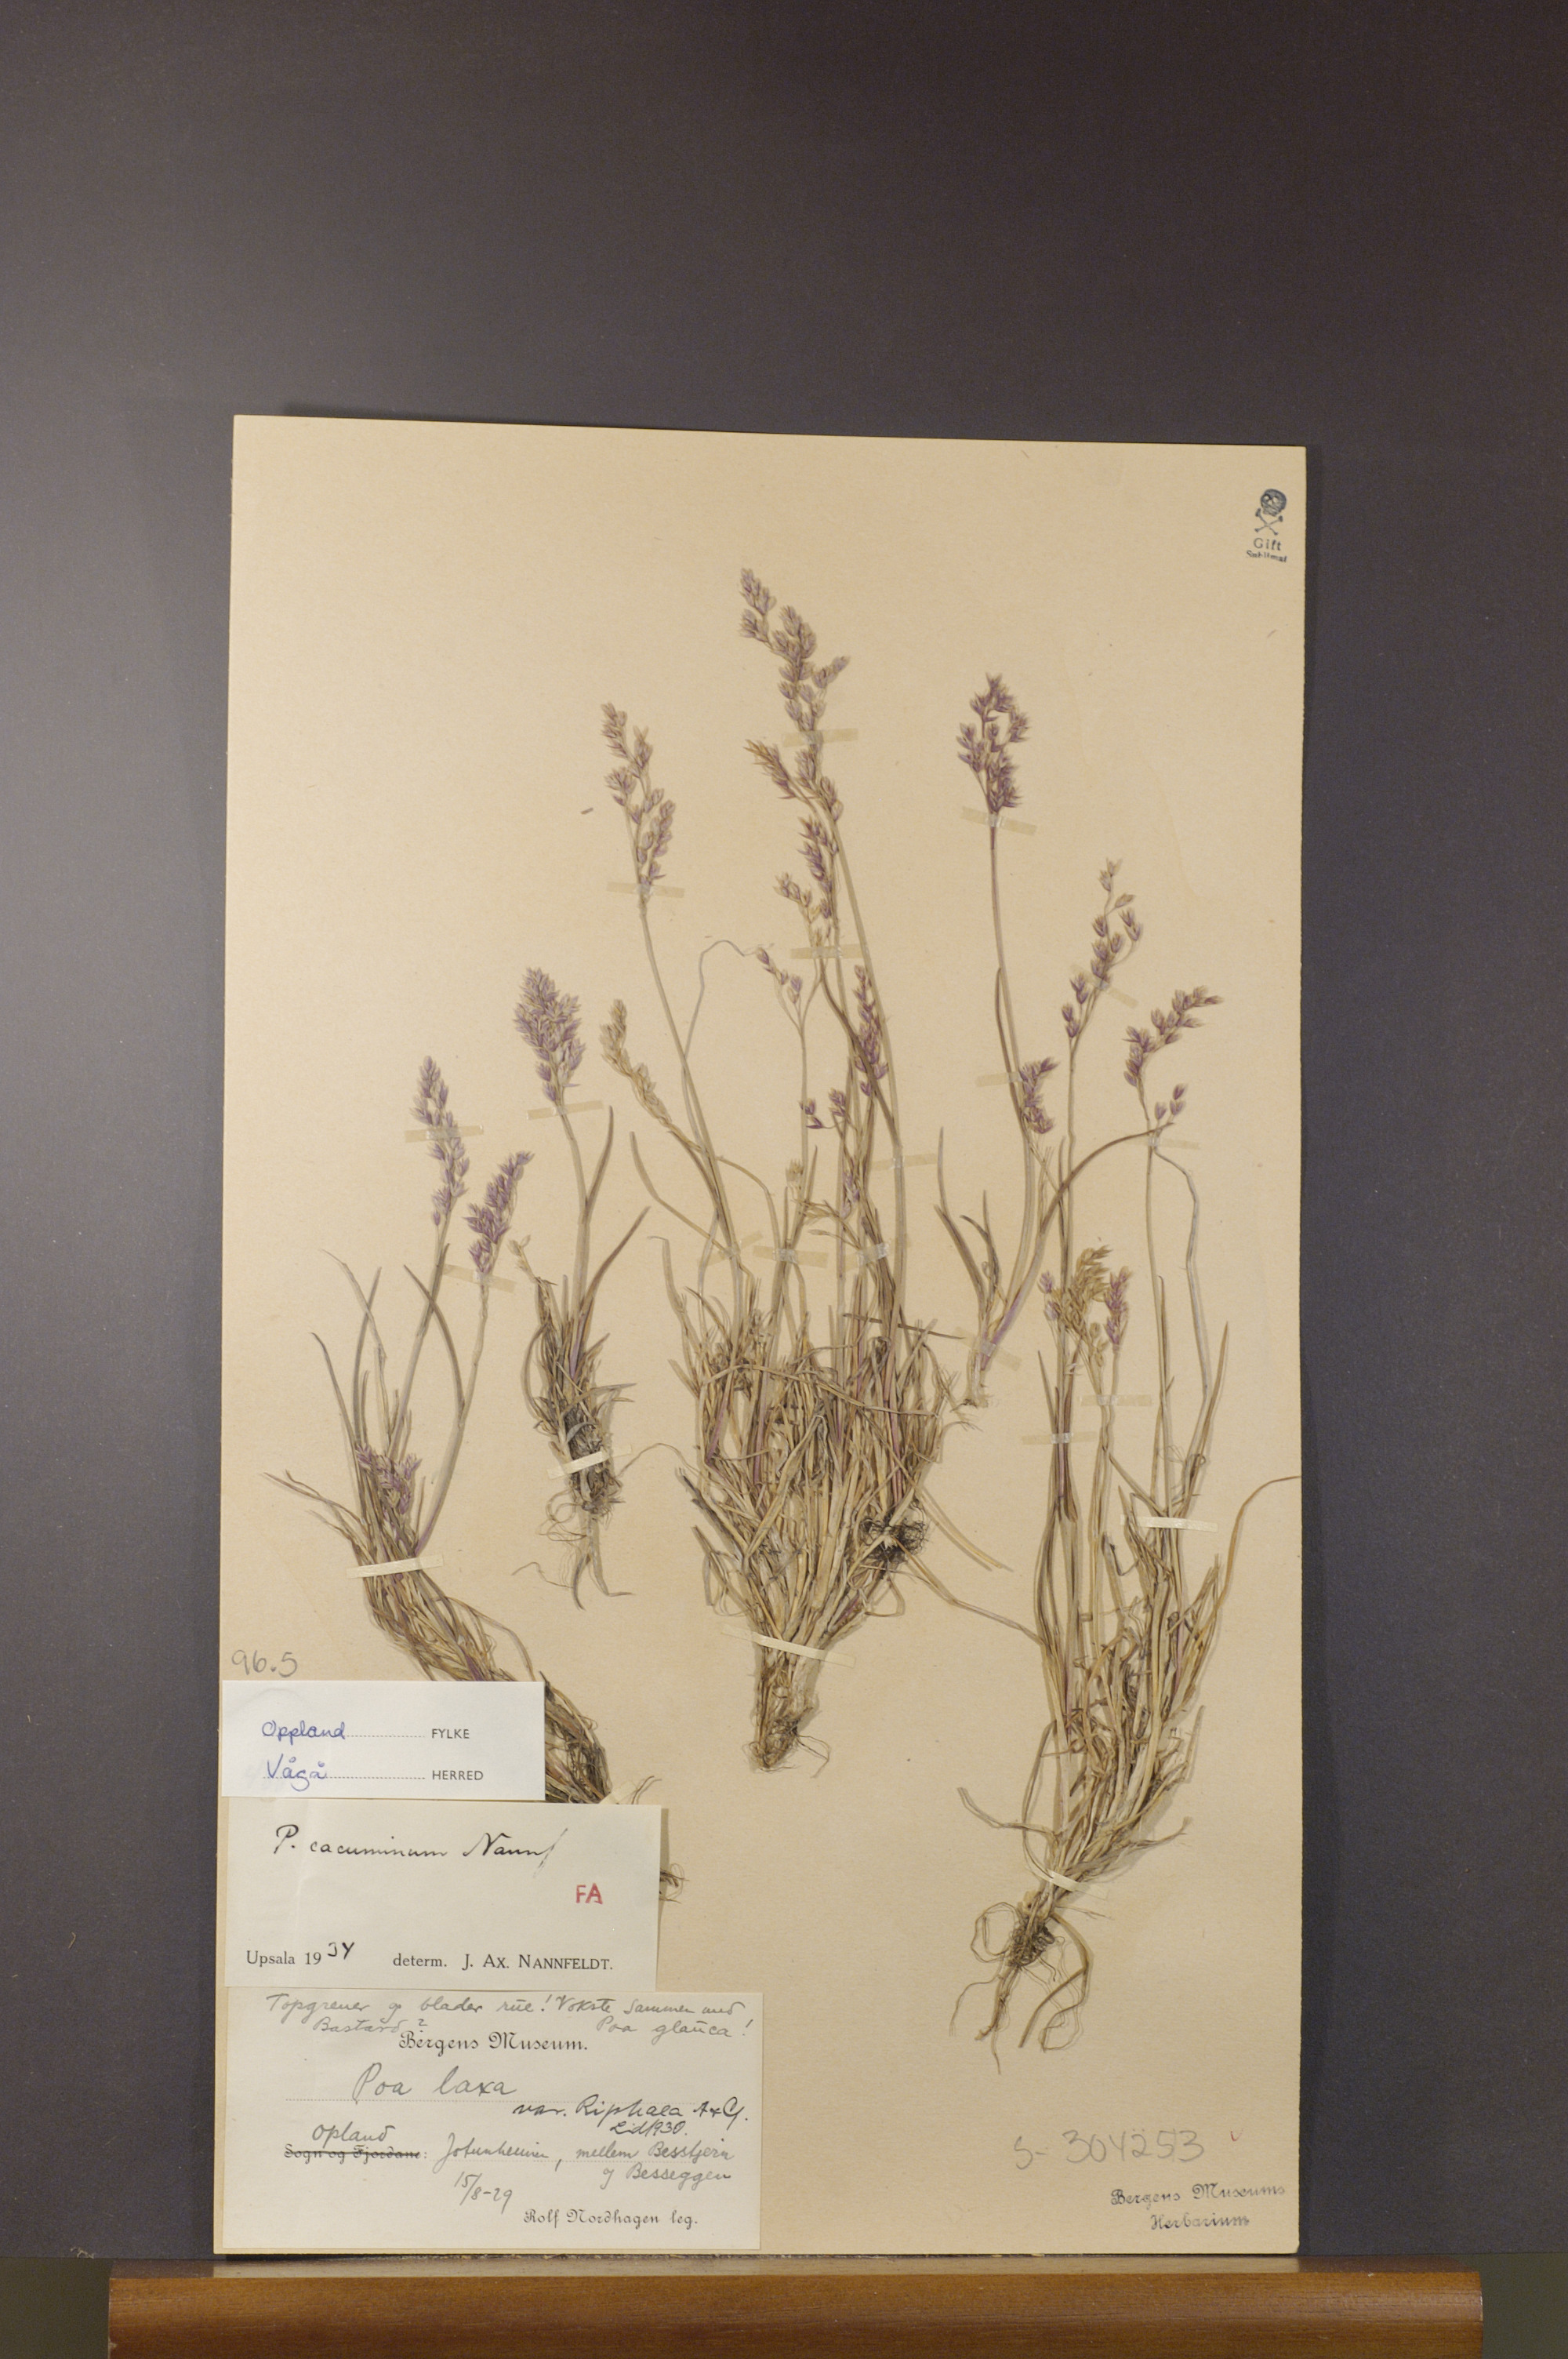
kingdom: Plantae
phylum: Tracheophyta
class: Liliopsida
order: Poales
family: Poaceae
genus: Poa
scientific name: Poa flexuosa
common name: Wavy meadow-grass
